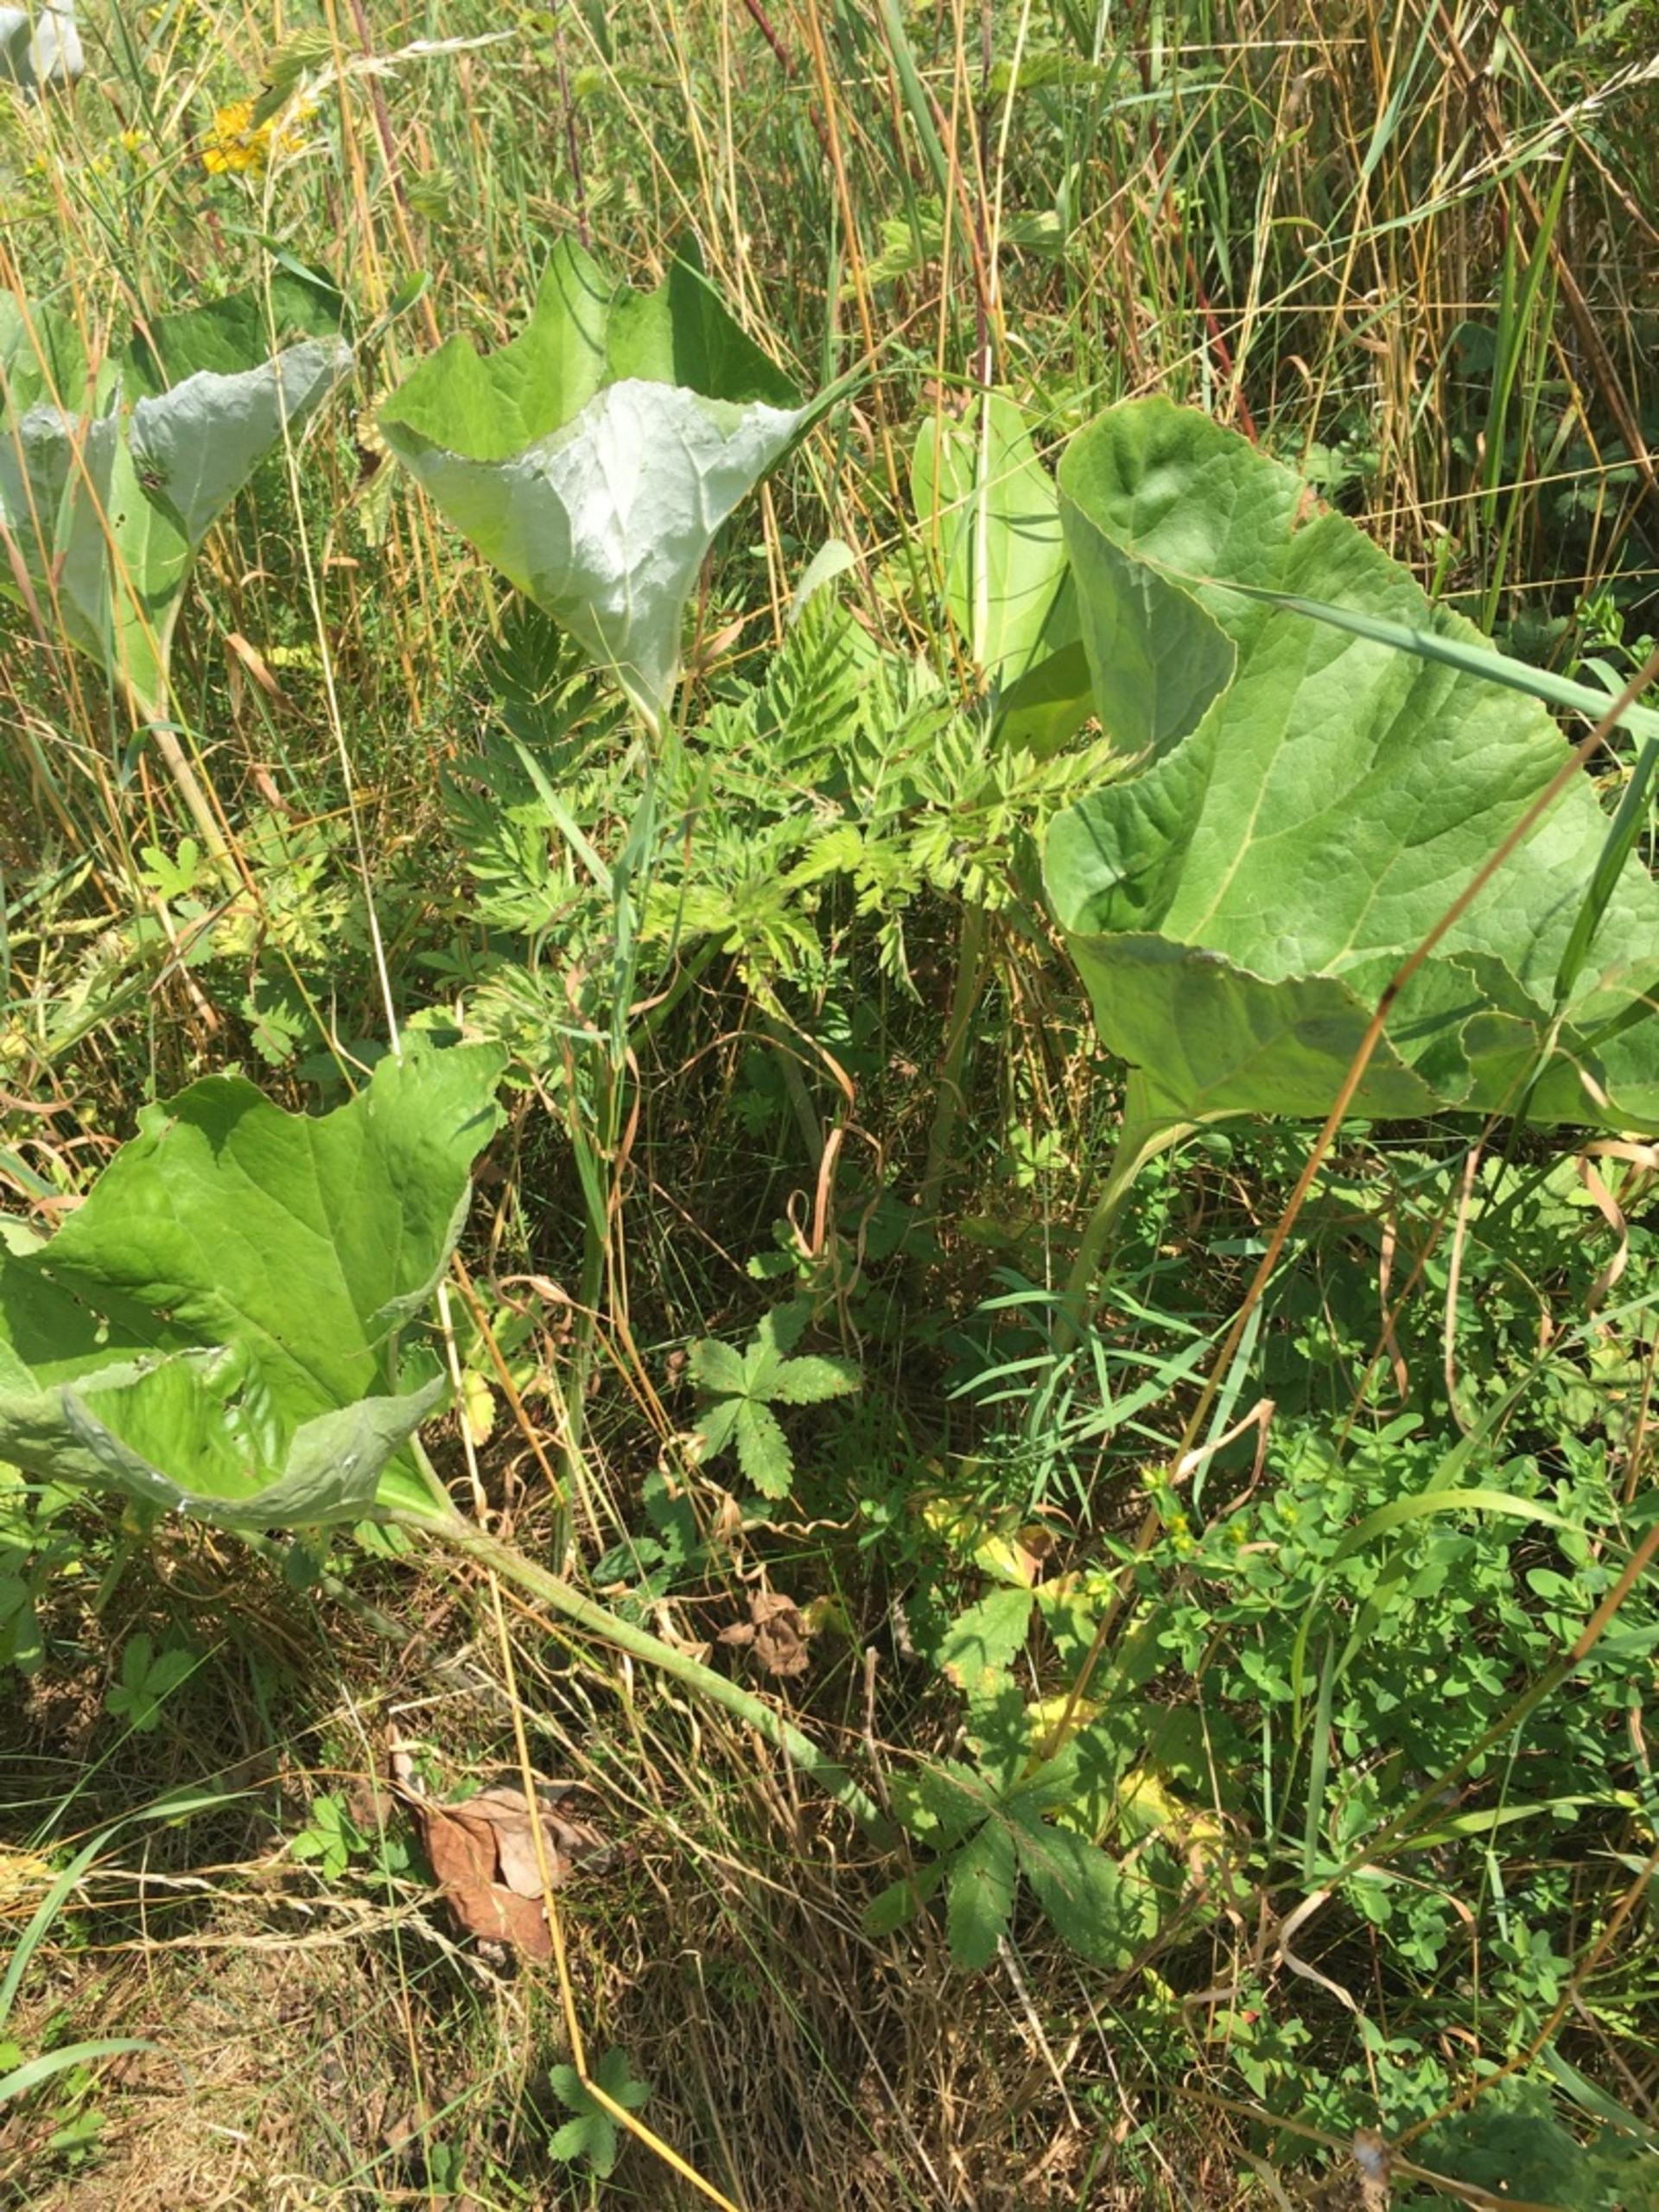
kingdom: Plantae
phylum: Tracheophyta
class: Magnoliopsida
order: Asterales
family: Asteraceae
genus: Petasites
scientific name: Petasites spurius
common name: Filtet hestehov
